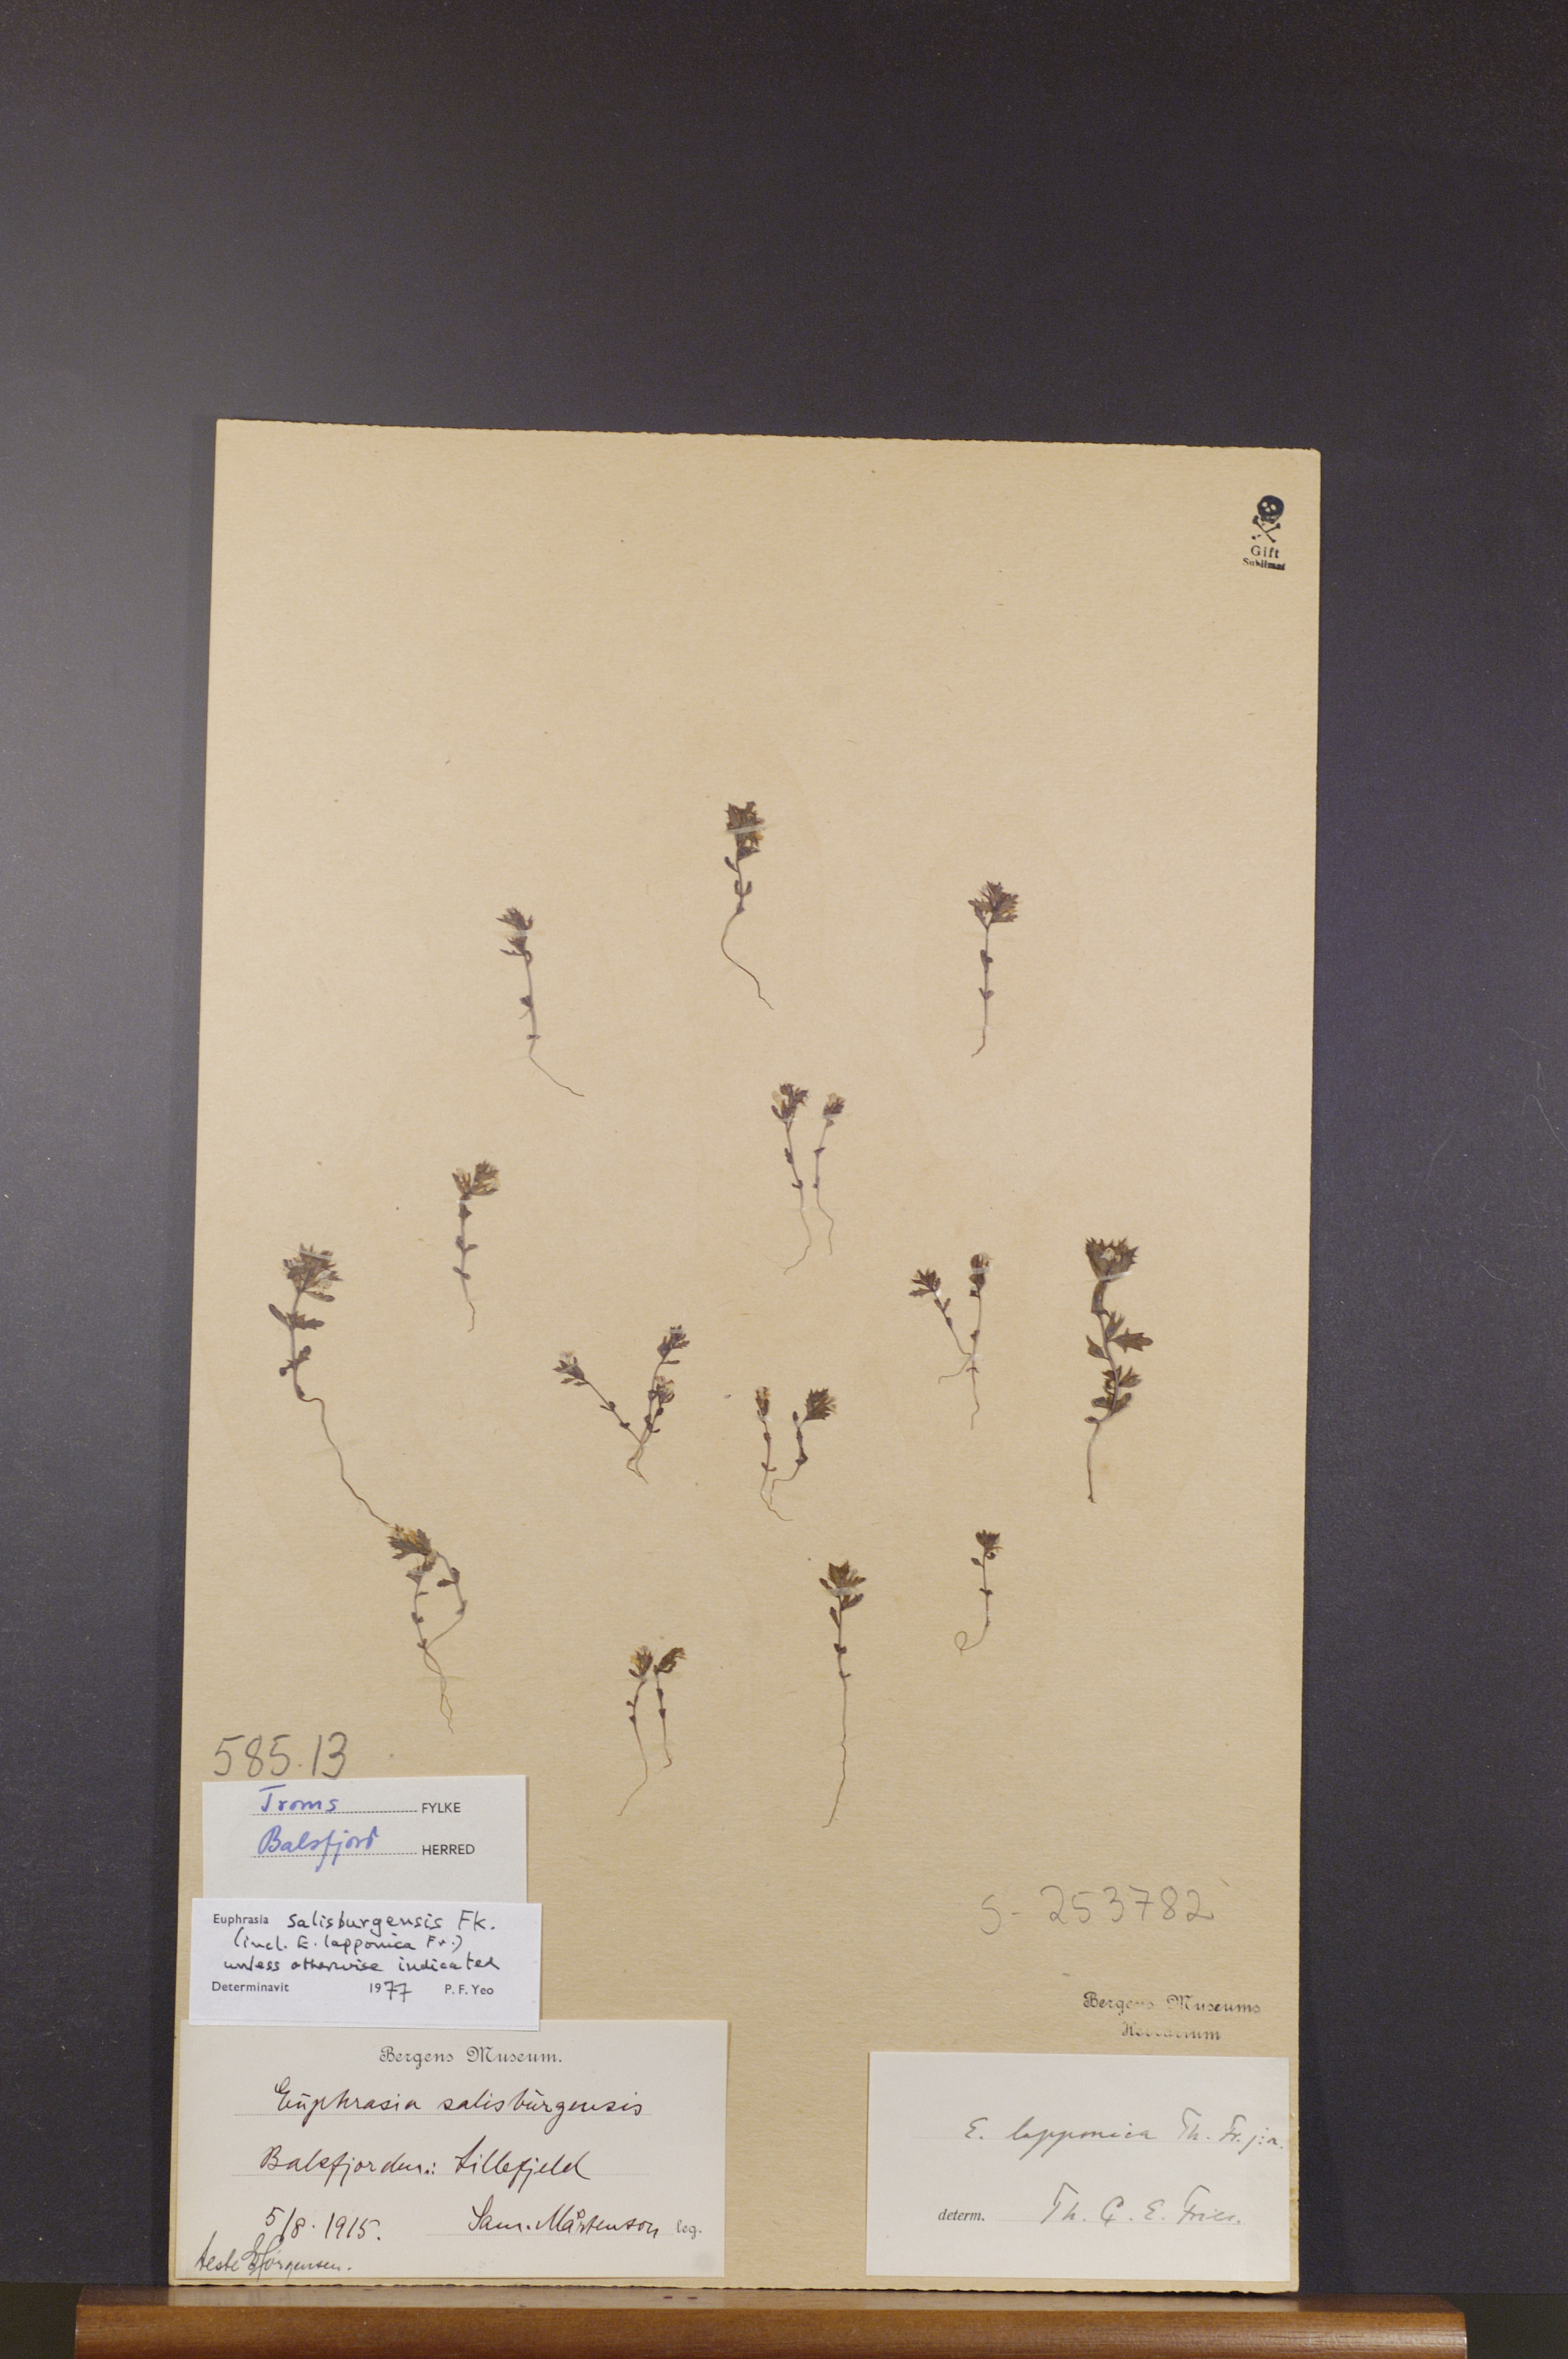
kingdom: Plantae
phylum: Tracheophyta
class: Magnoliopsida
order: Lamiales
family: Orobanchaceae
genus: Euphrasia
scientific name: Euphrasia salisburgensis
